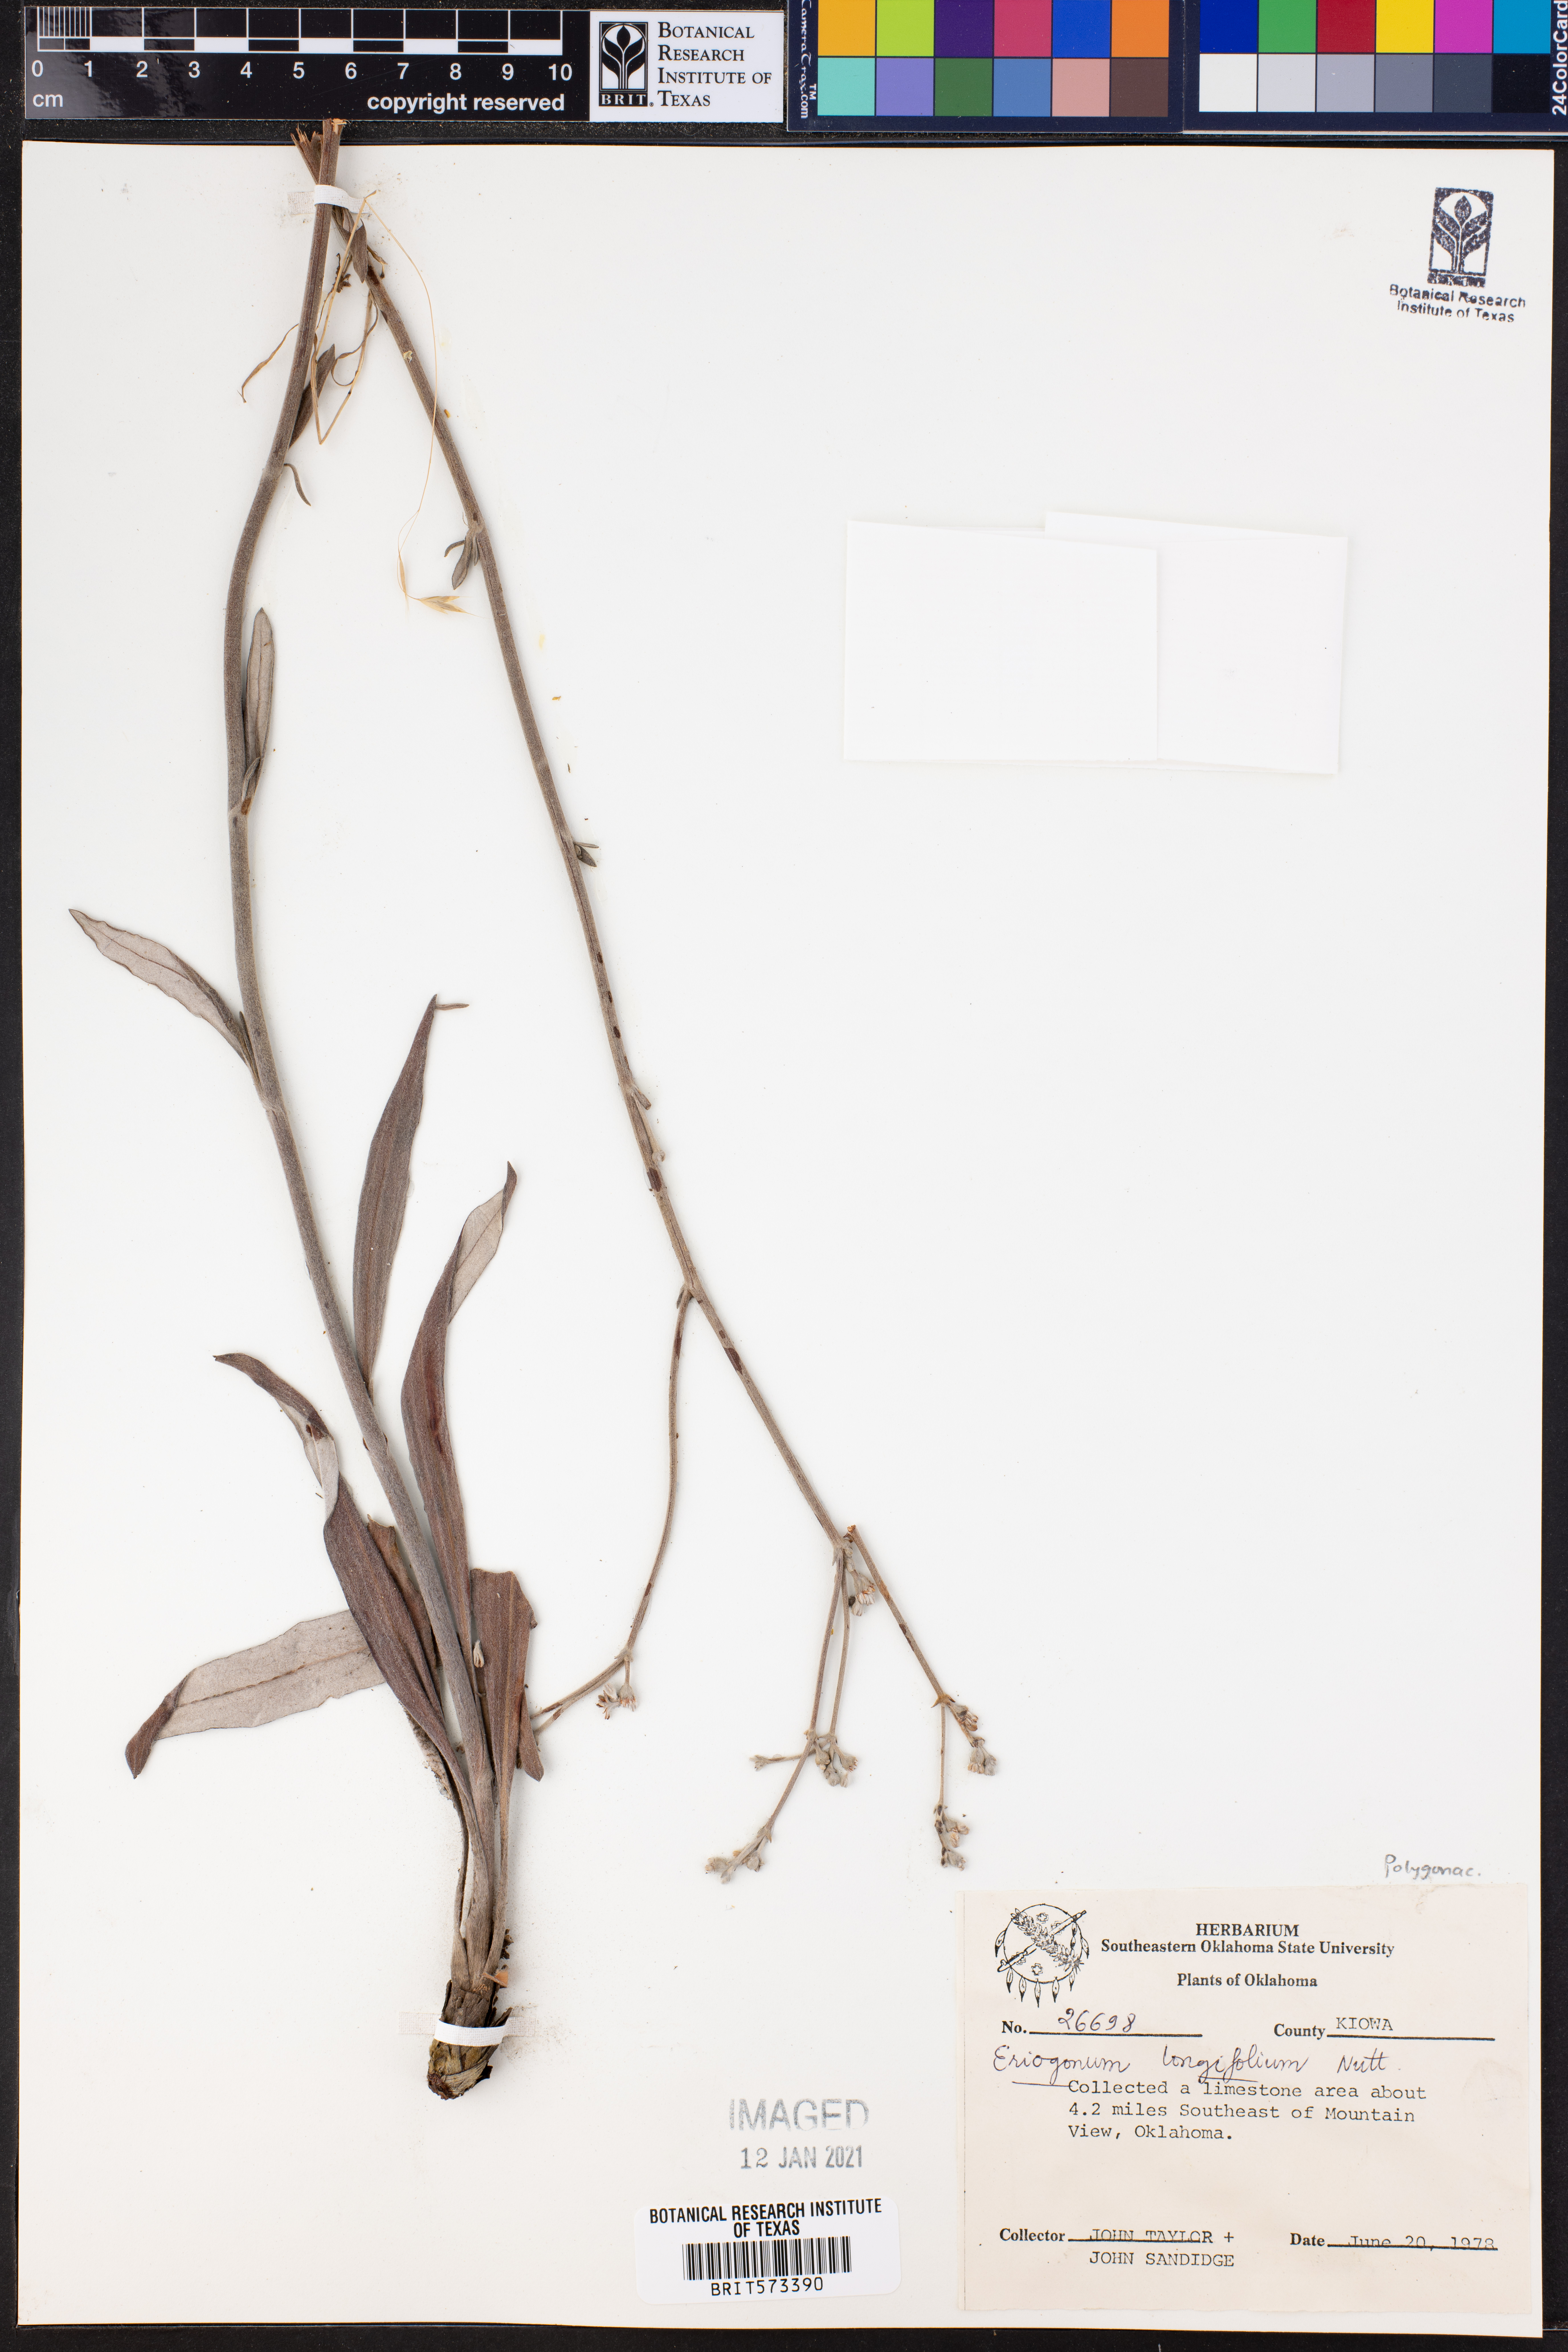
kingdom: Plantae
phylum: Tracheophyta
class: Magnoliopsida
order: Caryophyllales
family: Polygonaceae
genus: Eriogonum
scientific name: Eriogonum longifolium
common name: Longleaf wild buckwheat
